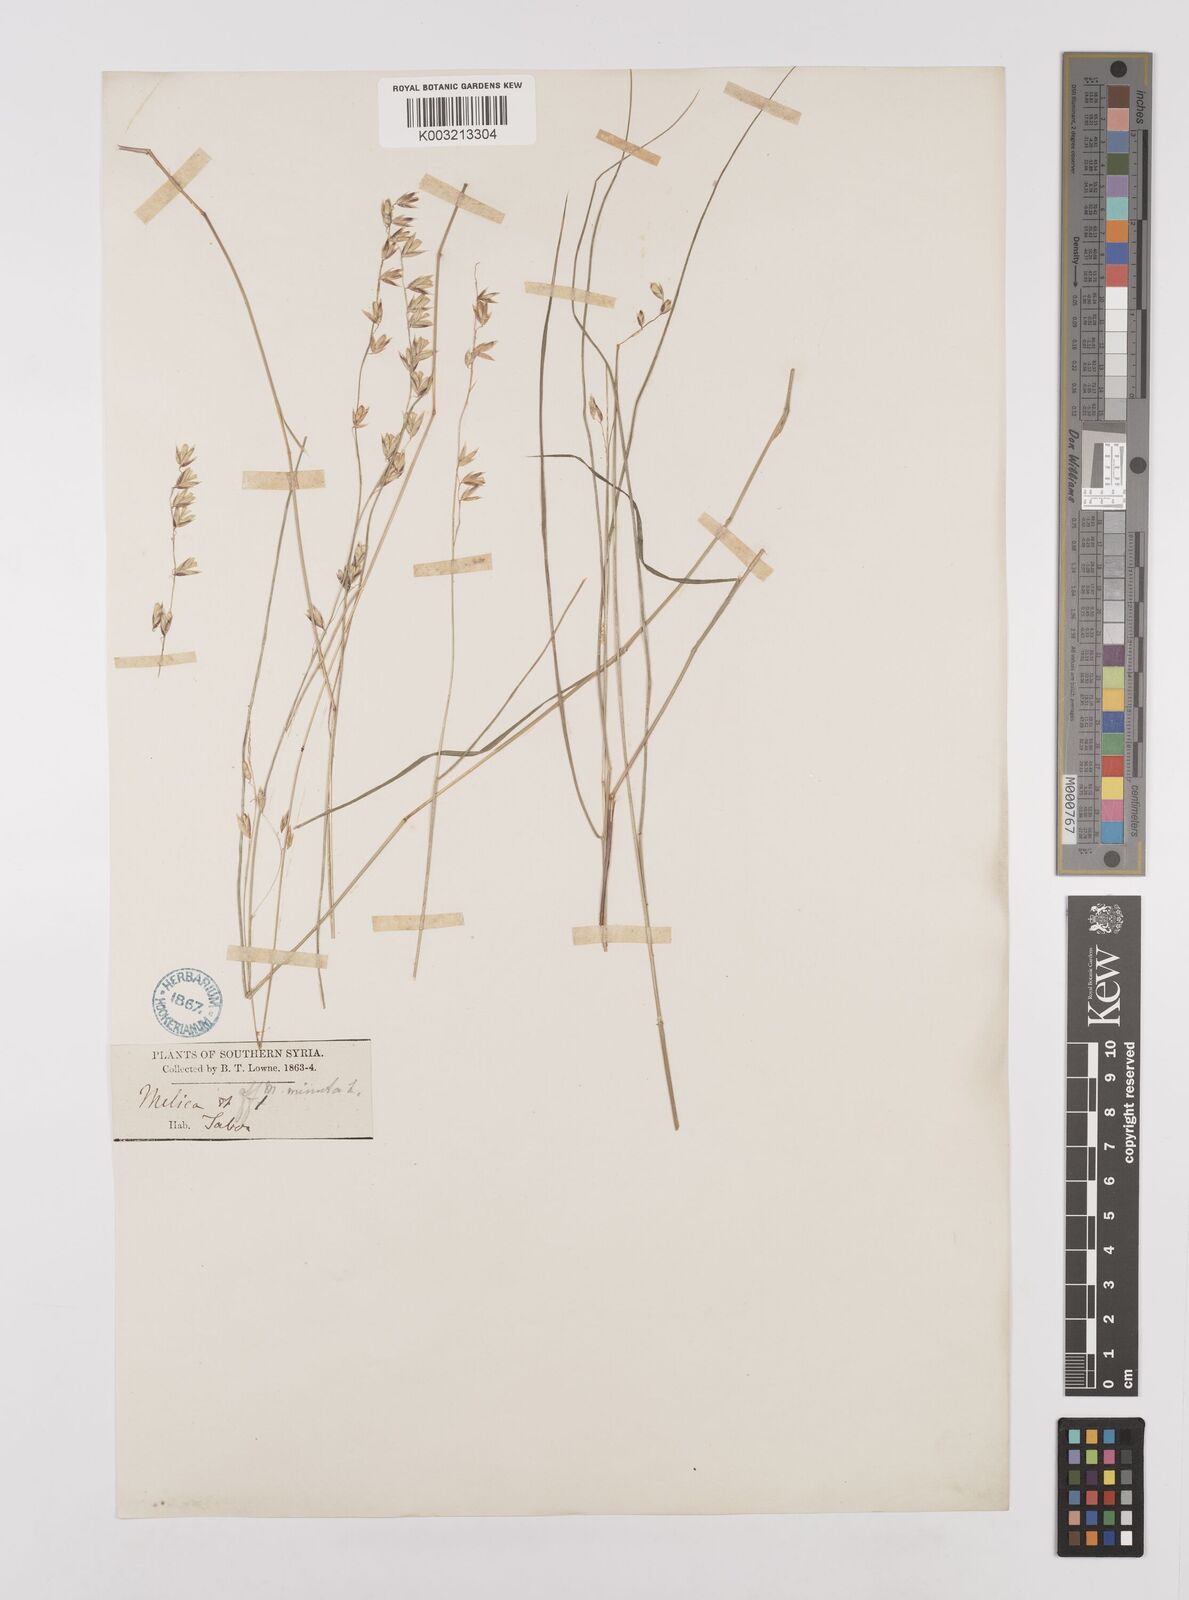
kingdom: Plantae
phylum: Tracheophyta
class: Liliopsida
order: Poales
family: Poaceae
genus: Melica
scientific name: Melica minuta
